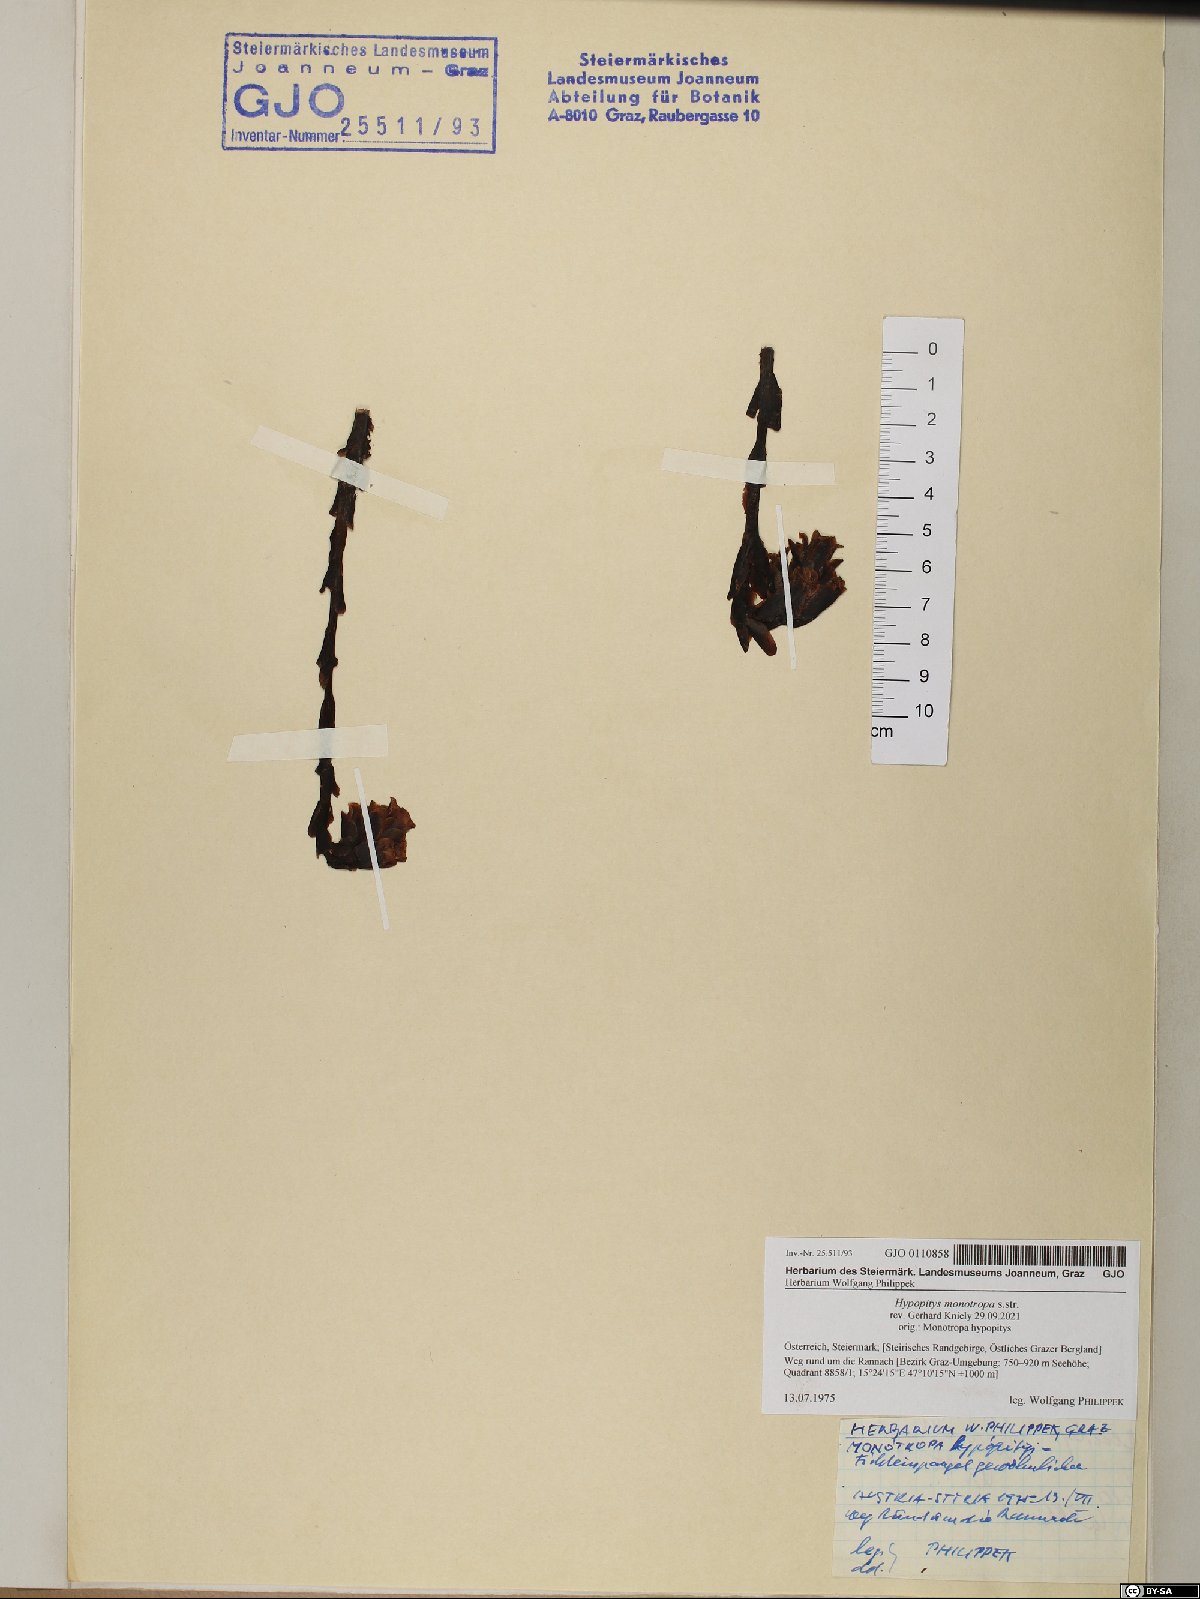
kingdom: Plantae
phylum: Tracheophyta
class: Magnoliopsida
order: Ericales
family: Ericaceae
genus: Hypopitys
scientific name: Hypopitys monotropa
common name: Yellow bird's-nest
